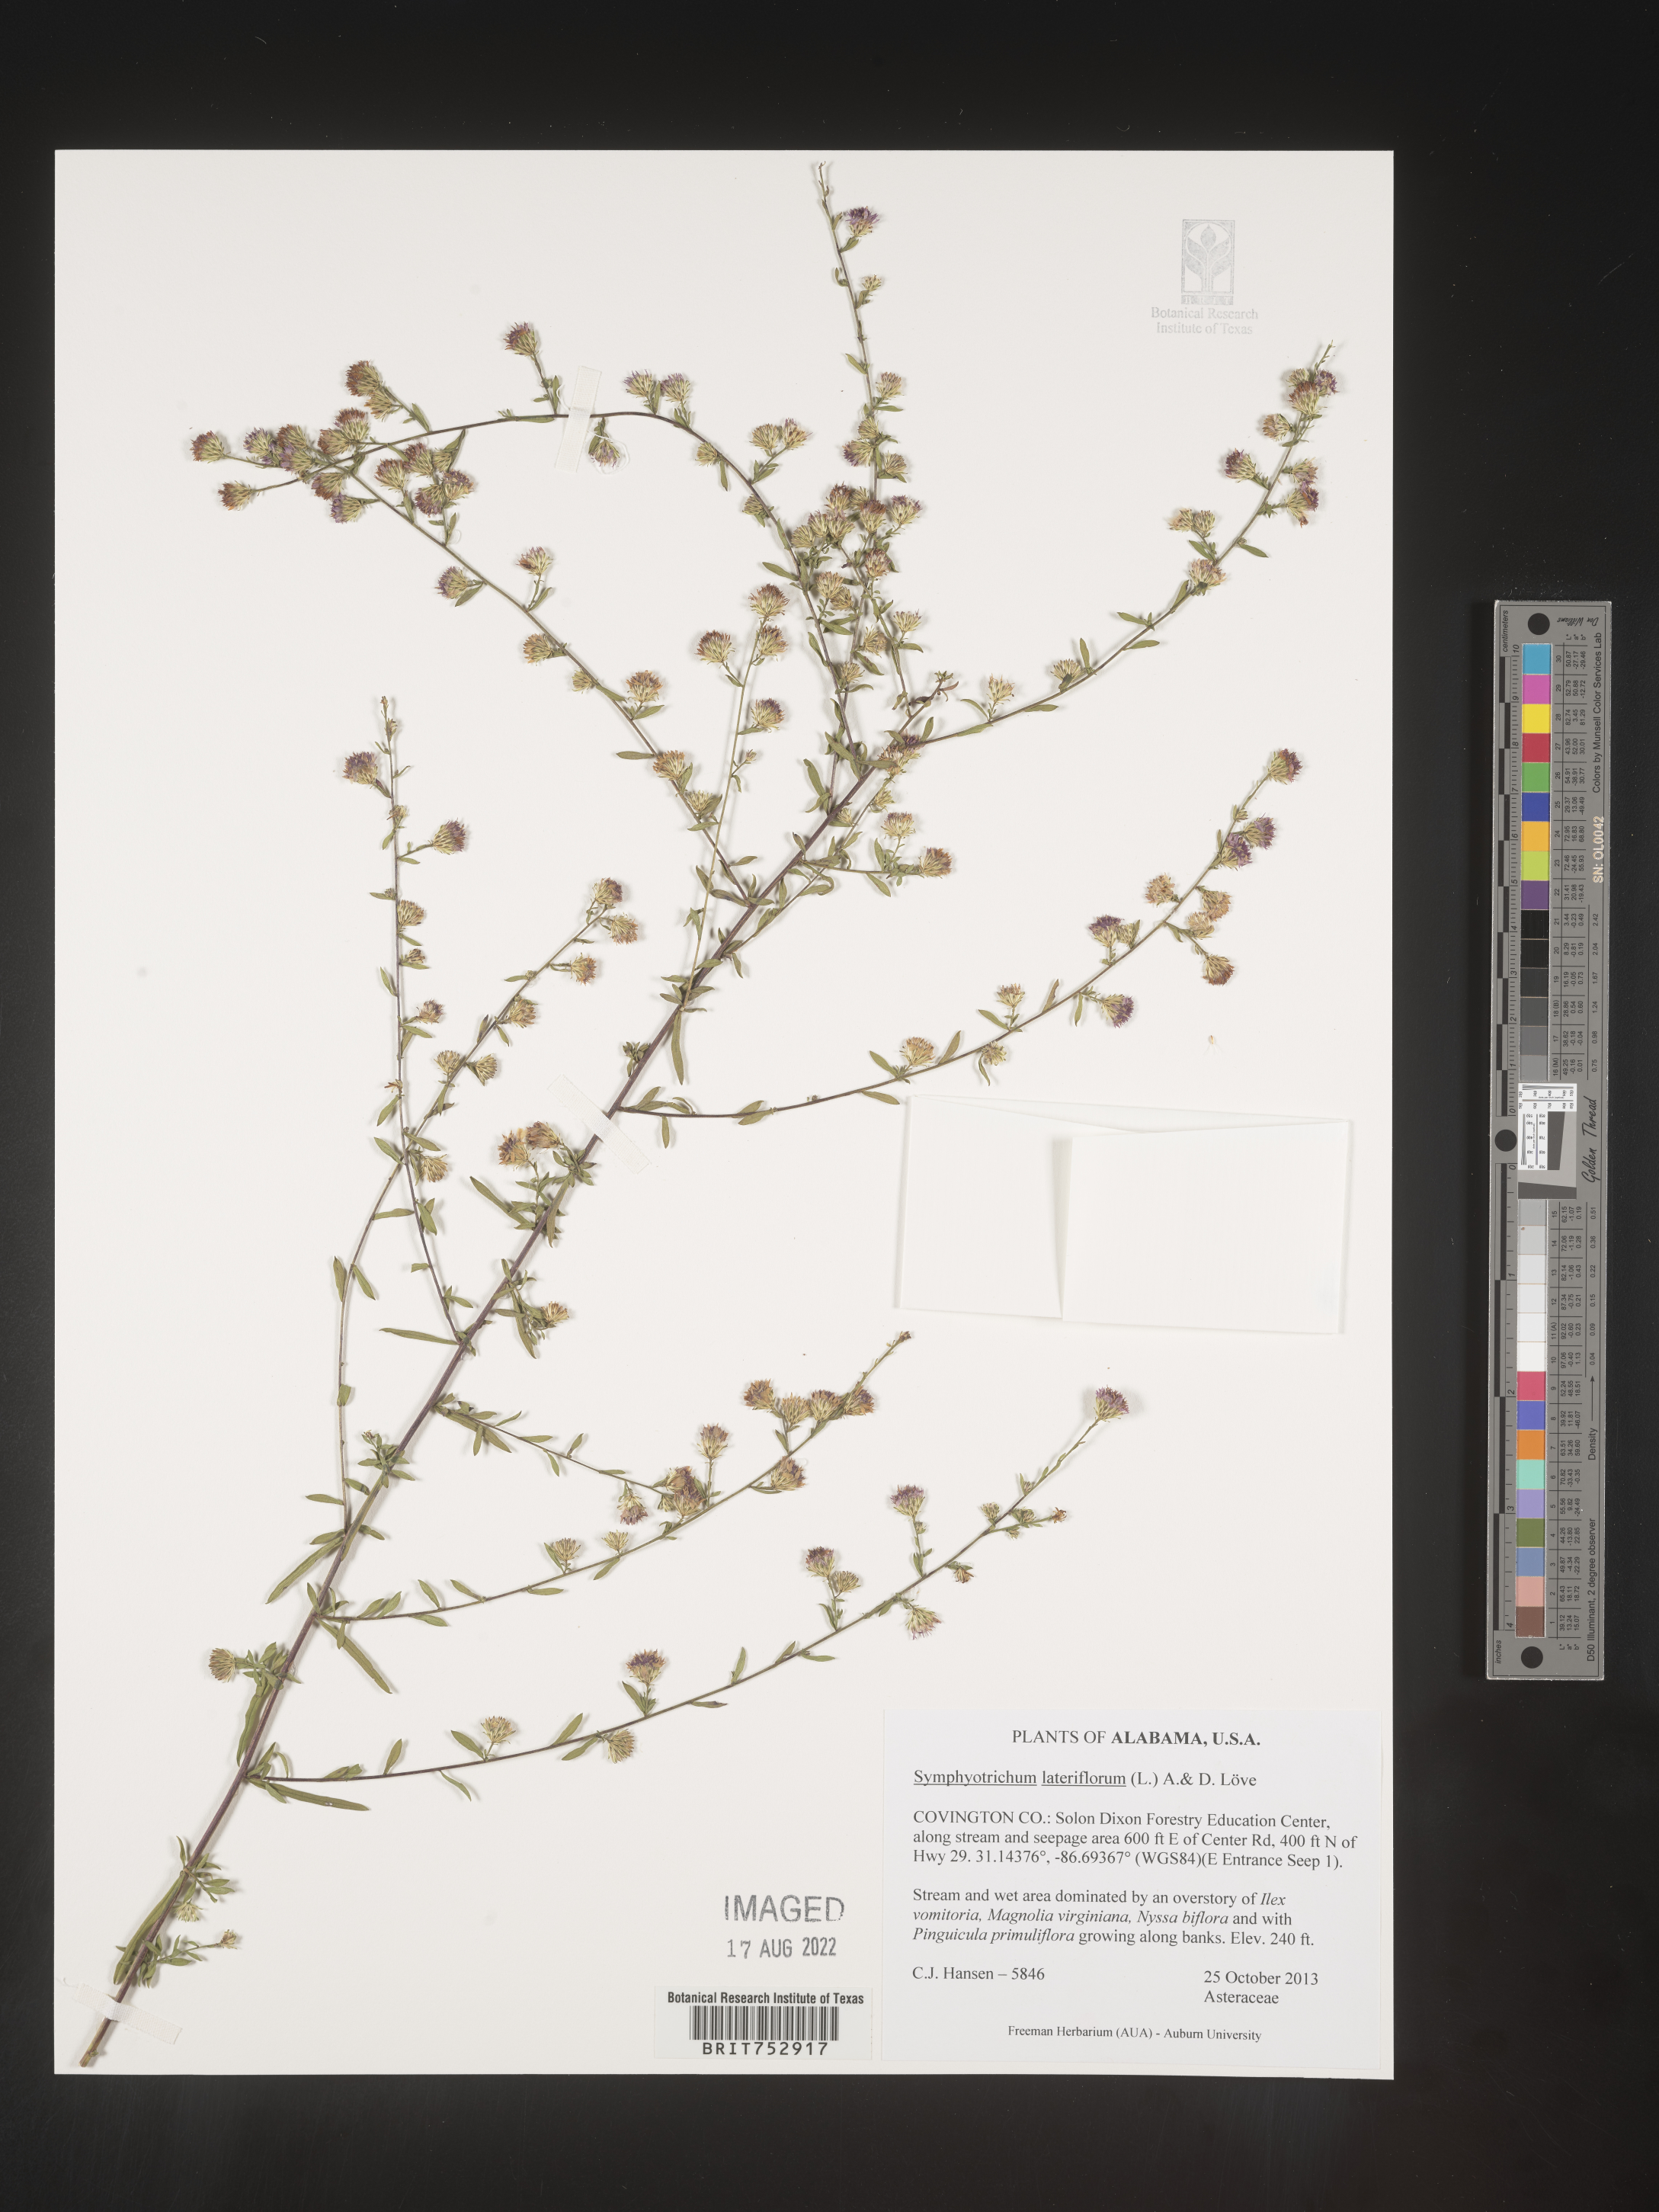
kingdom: Plantae
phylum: Tracheophyta
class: Magnoliopsida
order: Asterales
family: Asteraceae
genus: Symphyotrichum
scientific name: Symphyotrichum lateriflorum
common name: Calico aster
